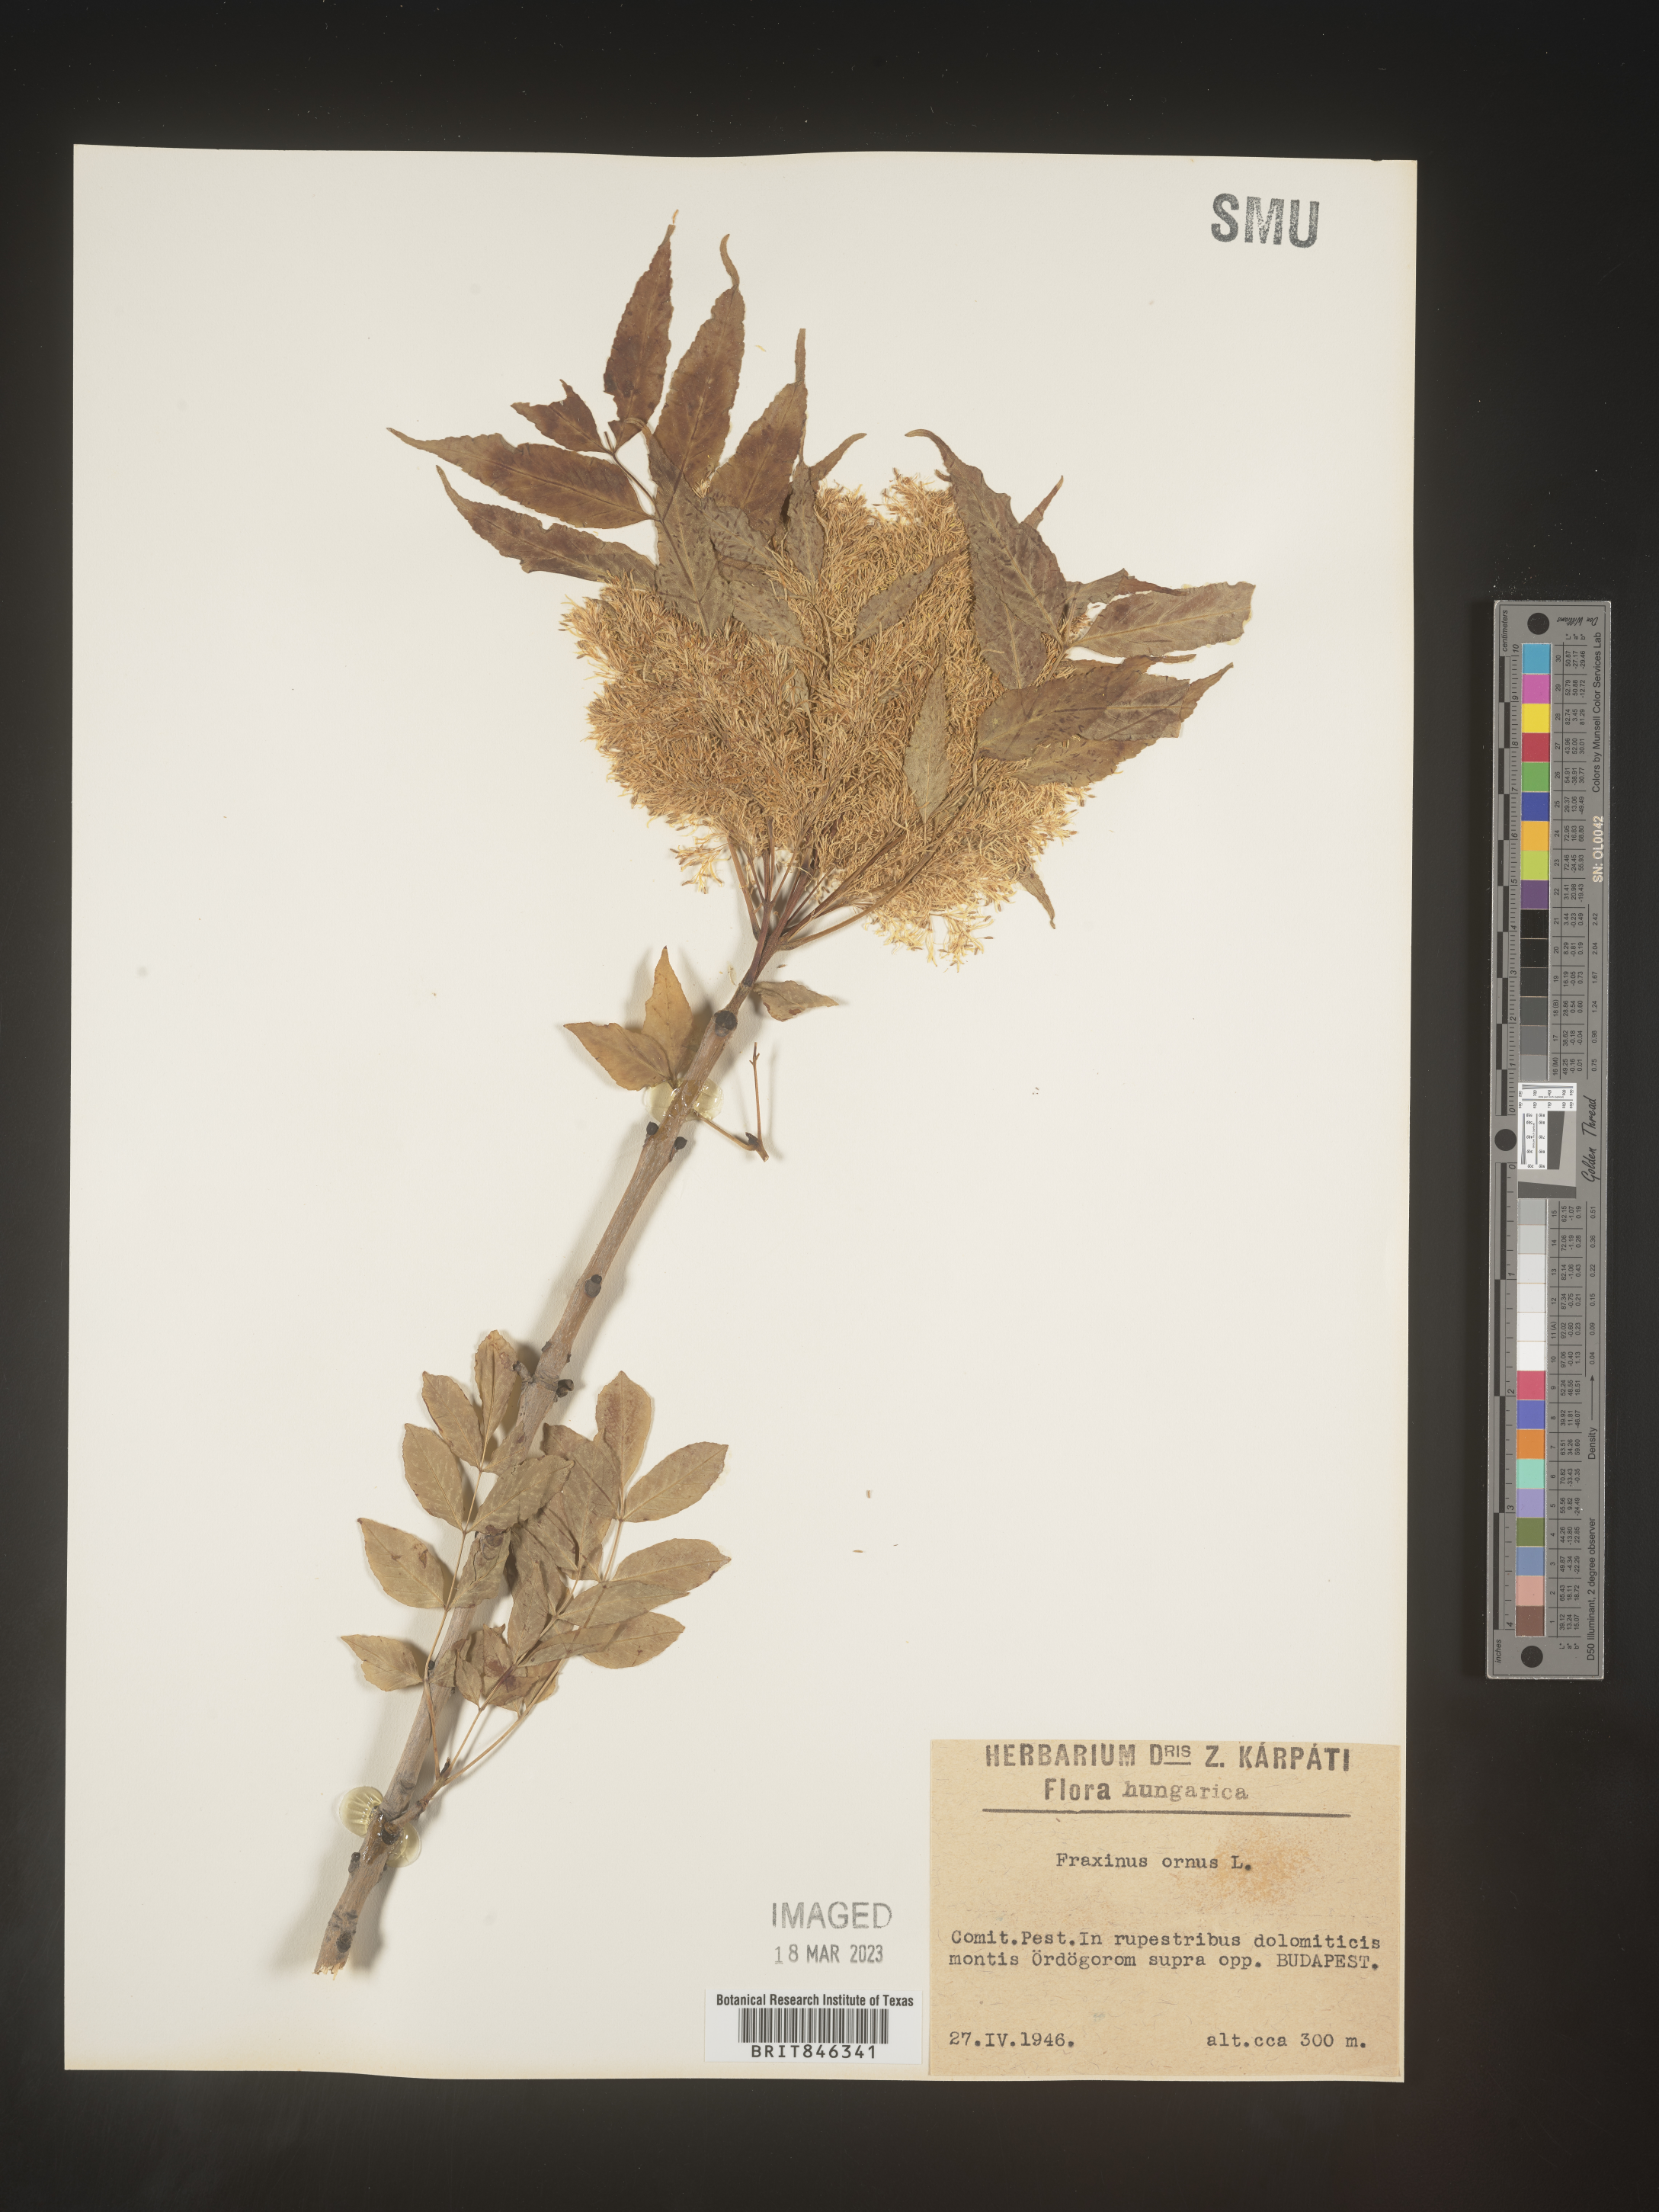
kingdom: Plantae
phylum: Tracheophyta
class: Magnoliopsida
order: Lamiales
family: Oleaceae
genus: Fraxinus
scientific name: Fraxinus
